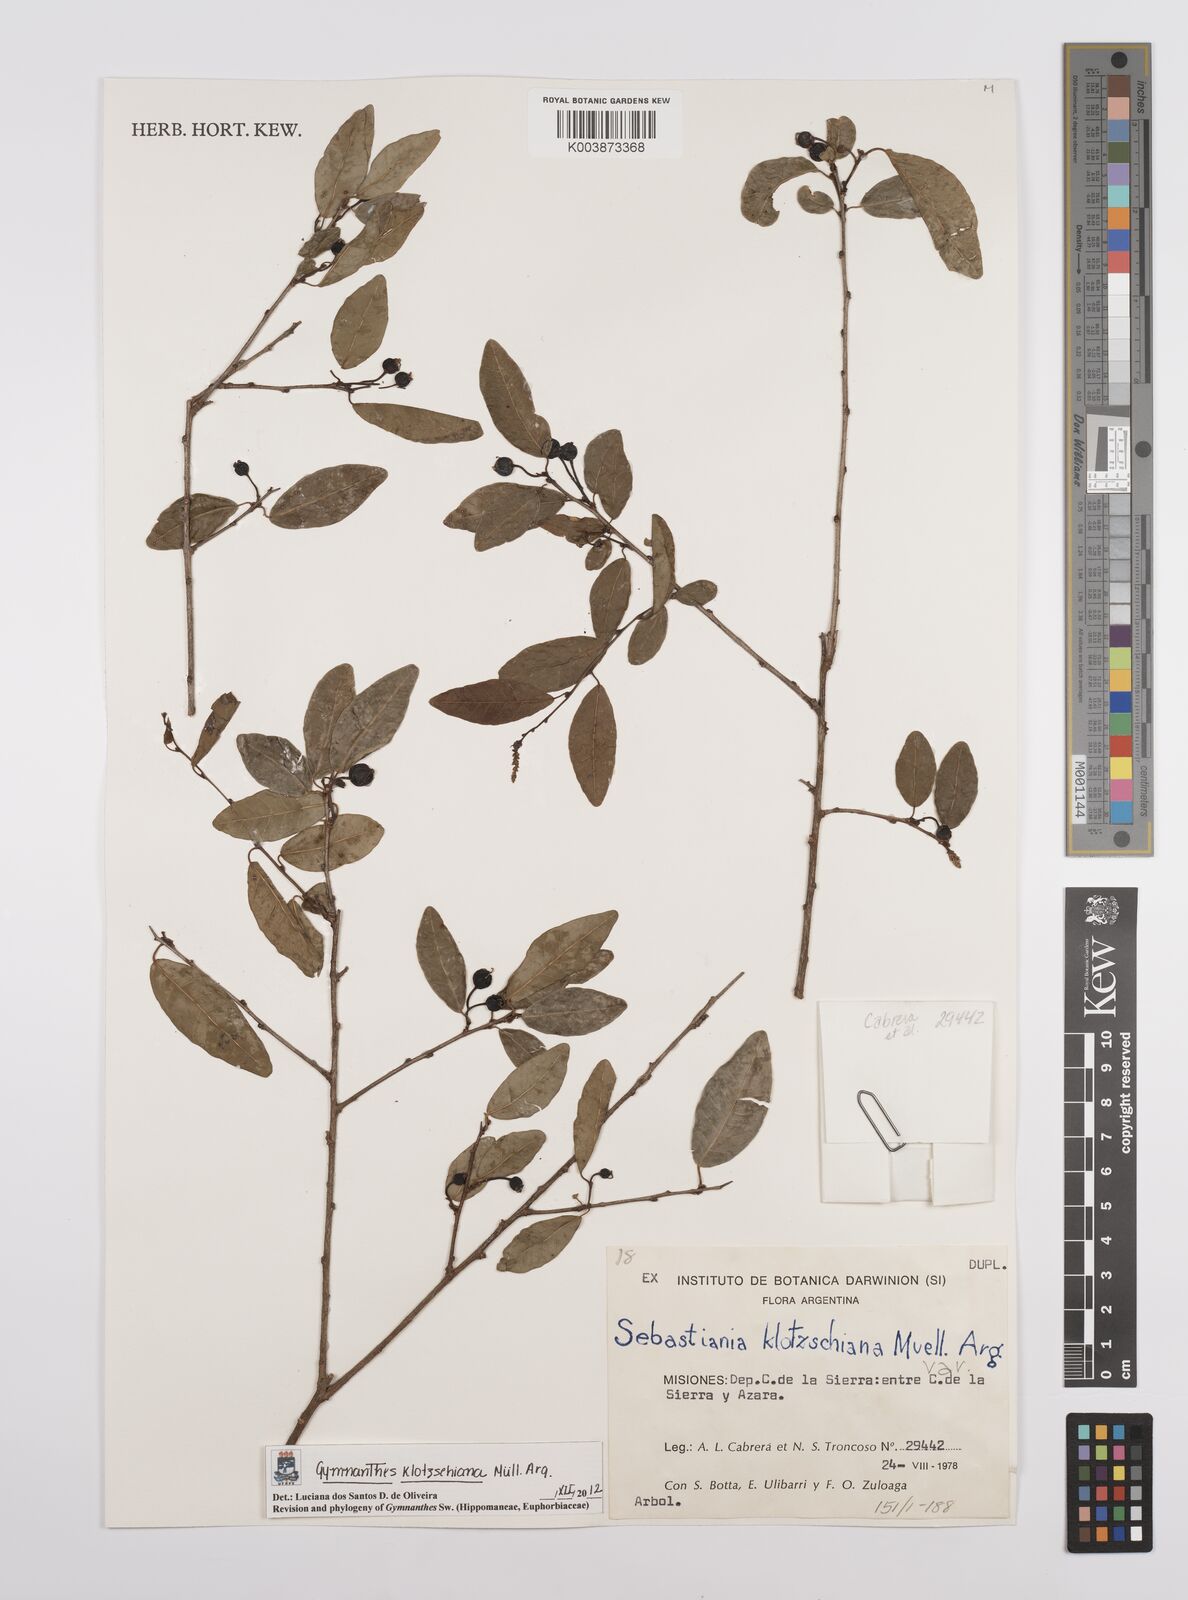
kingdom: Plantae
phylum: Tracheophyta
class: Magnoliopsida
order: Malpighiales
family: Euphorbiaceae
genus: Sebastiania
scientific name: Sebastiania klotzschiana
